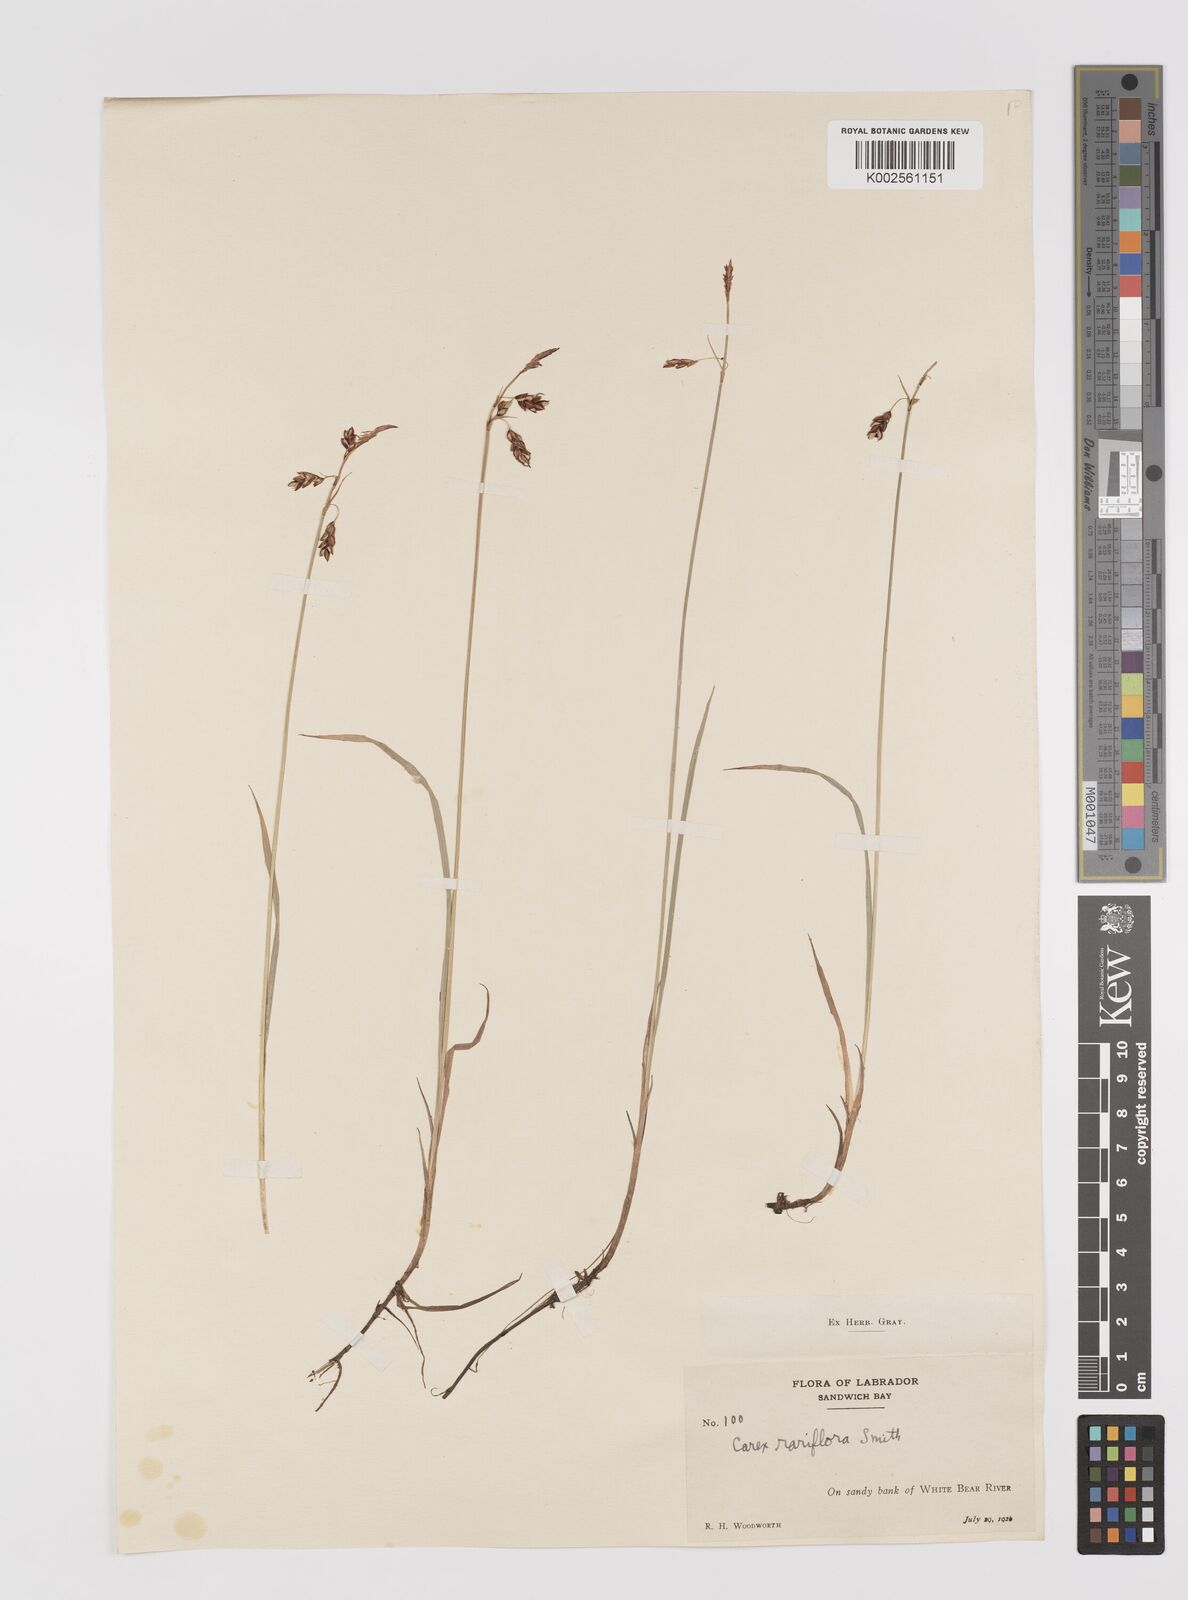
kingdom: Plantae
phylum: Tracheophyta
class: Liliopsida
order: Poales
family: Cyperaceae
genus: Carex
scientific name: Carex rariflora
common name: Loose-flowered alpine sedge
